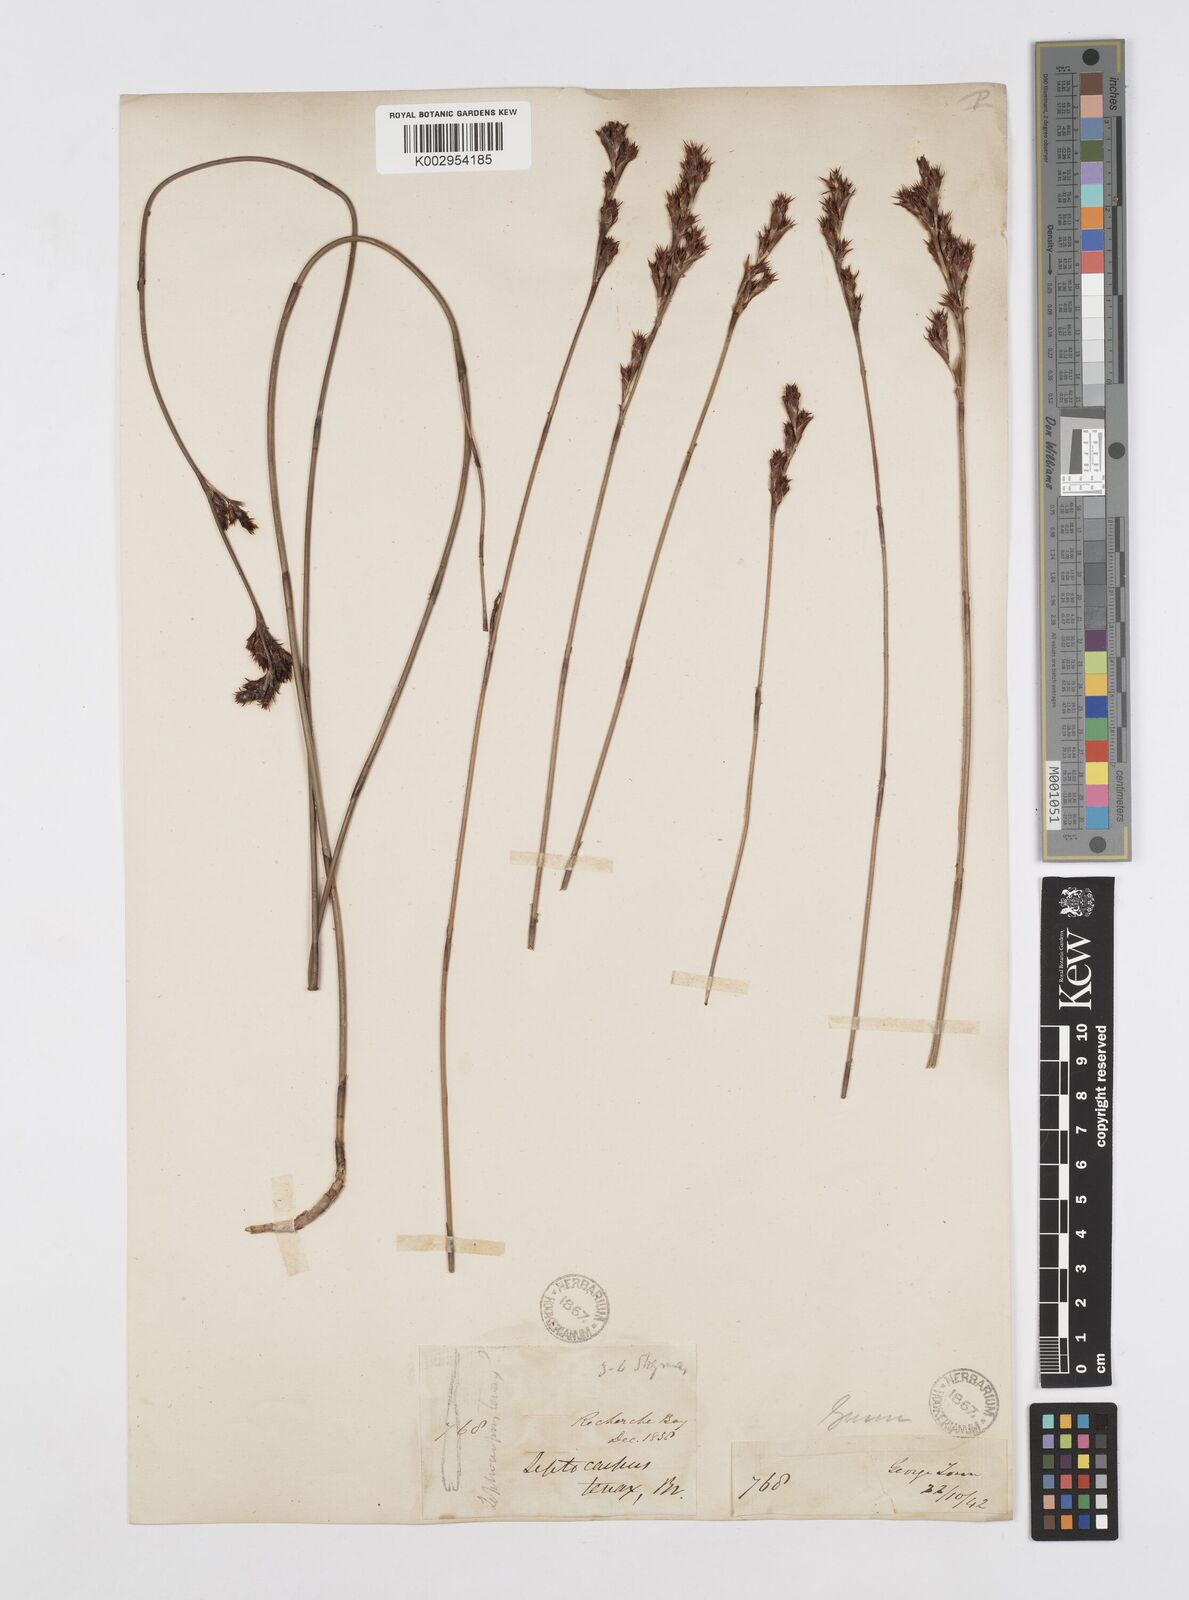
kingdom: Plantae
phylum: Tracheophyta
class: Liliopsida
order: Poales
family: Restionaceae
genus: Leptocarpus
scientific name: Leptocarpus tenax
